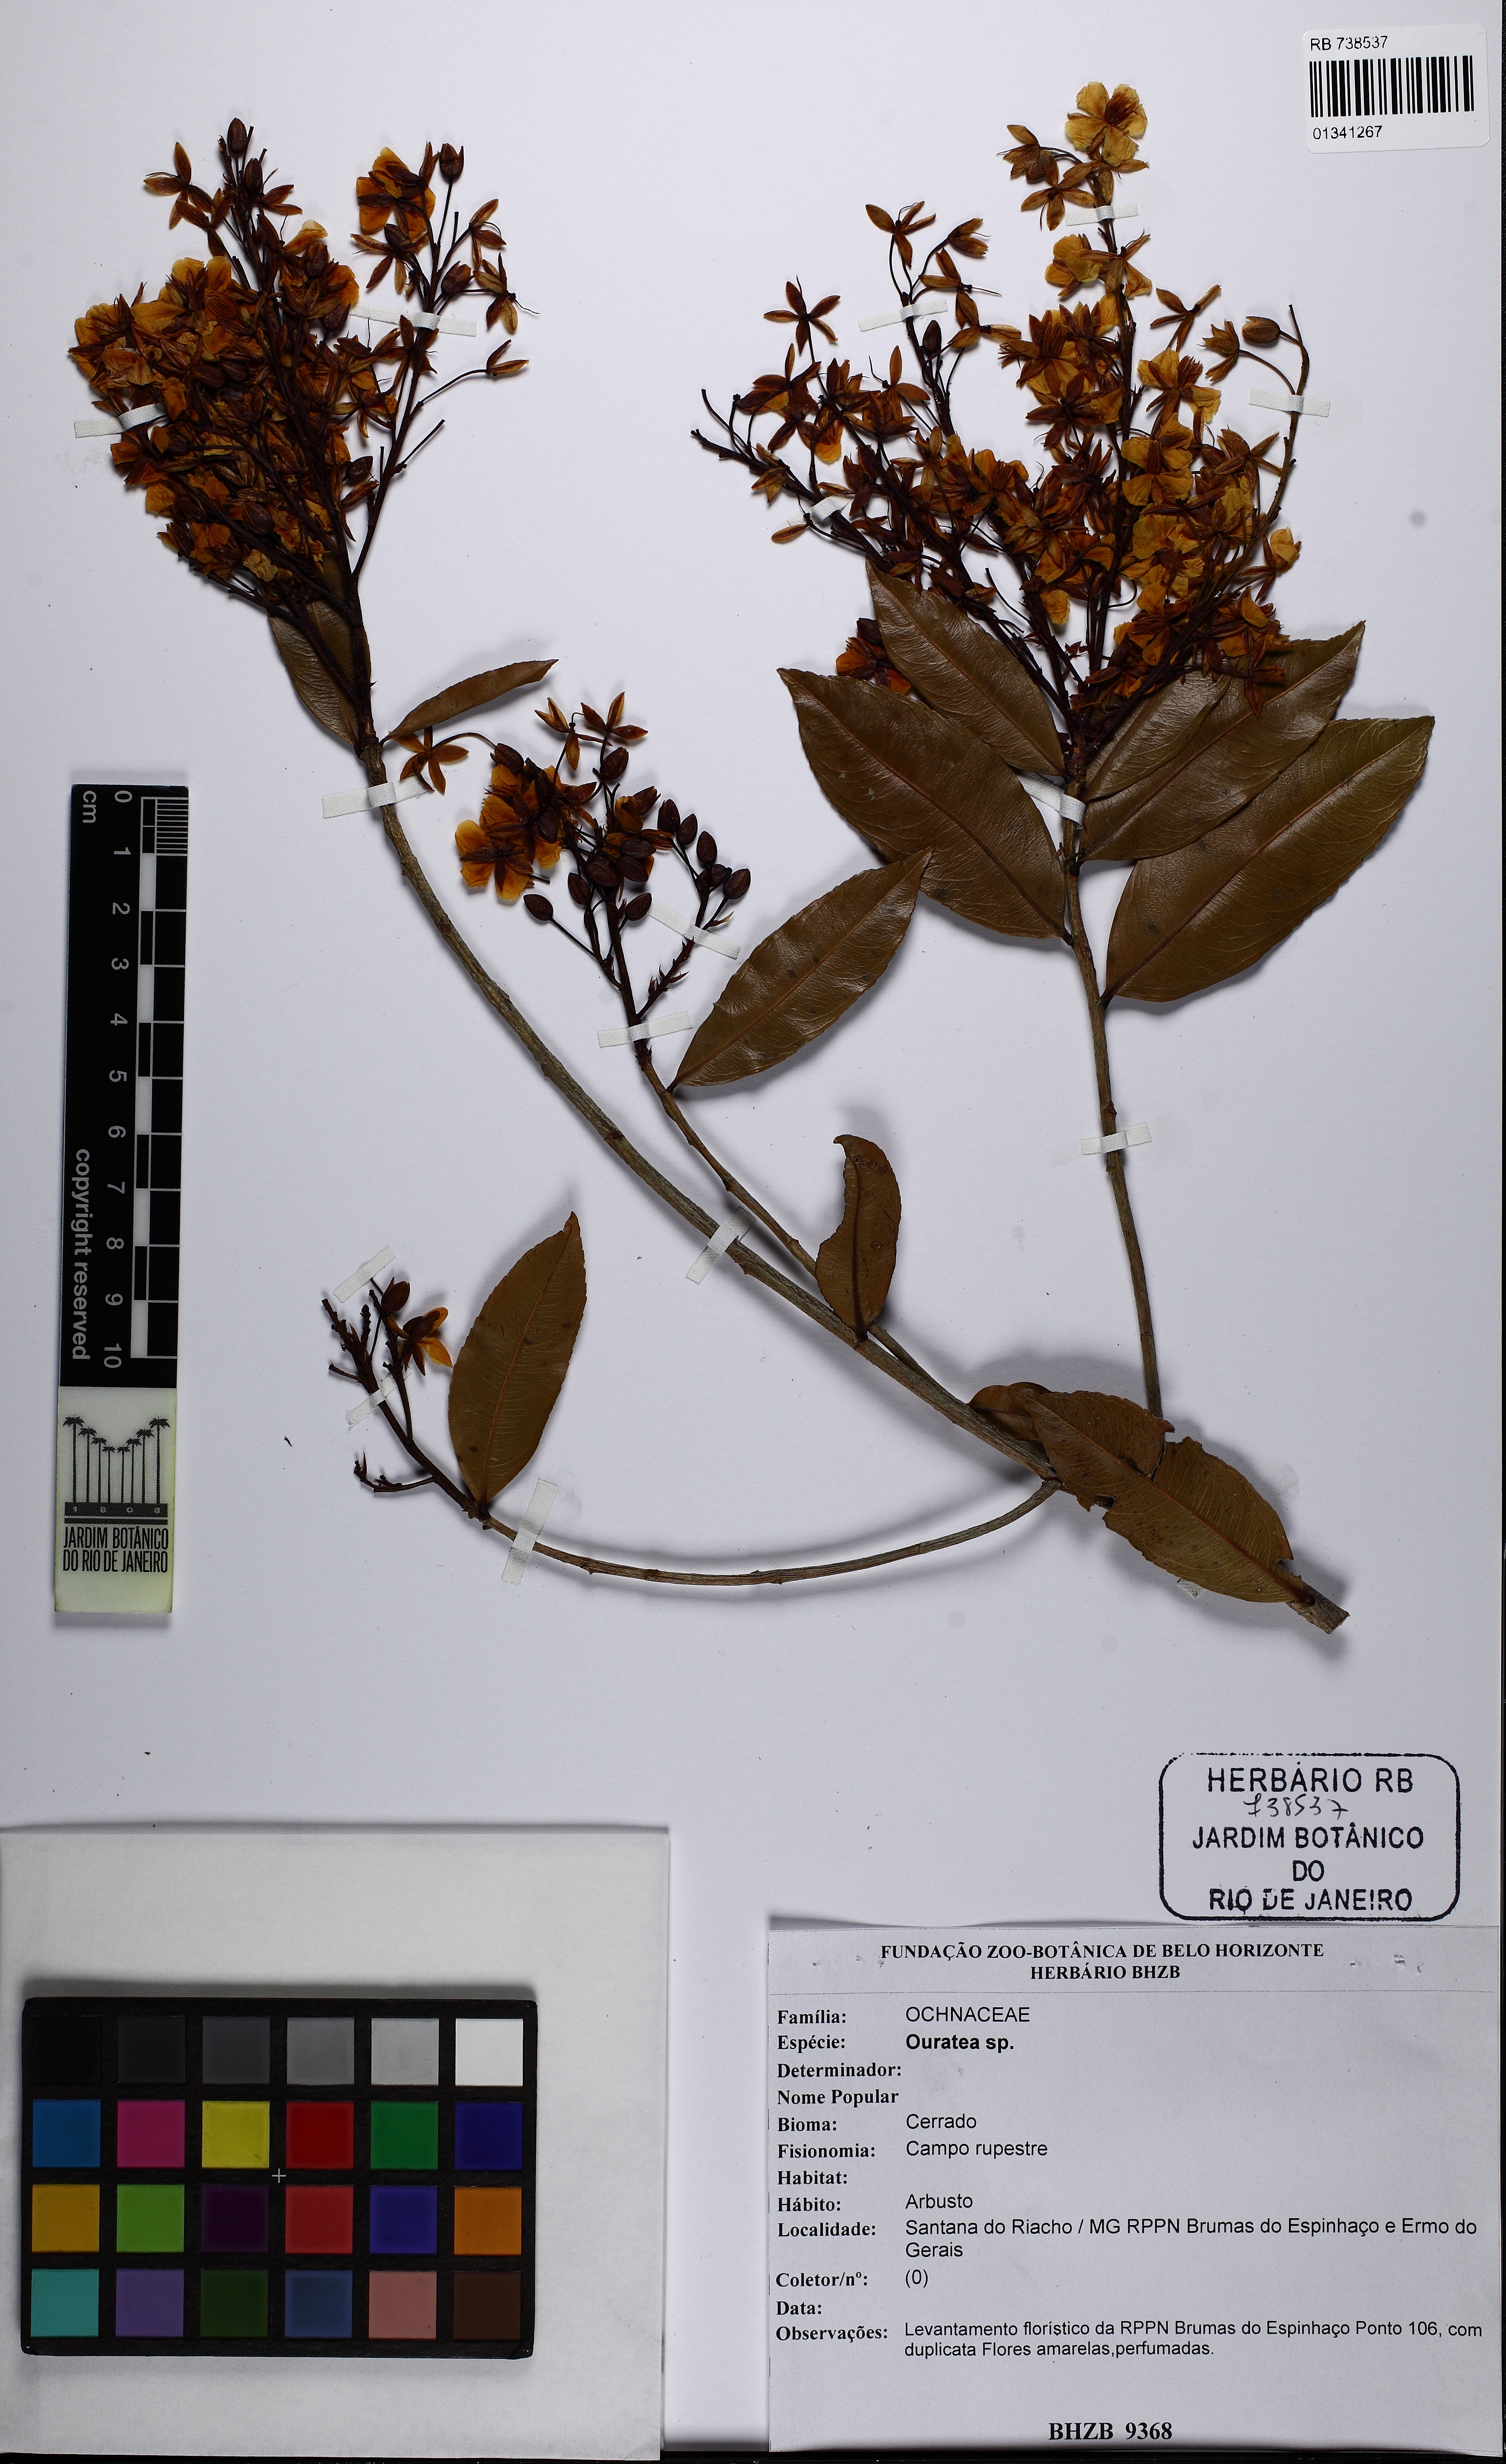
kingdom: Plantae
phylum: Tracheophyta
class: Magnoliopsida
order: Malpighiales
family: Ochnaceae
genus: Ouratea
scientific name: Ouratea
